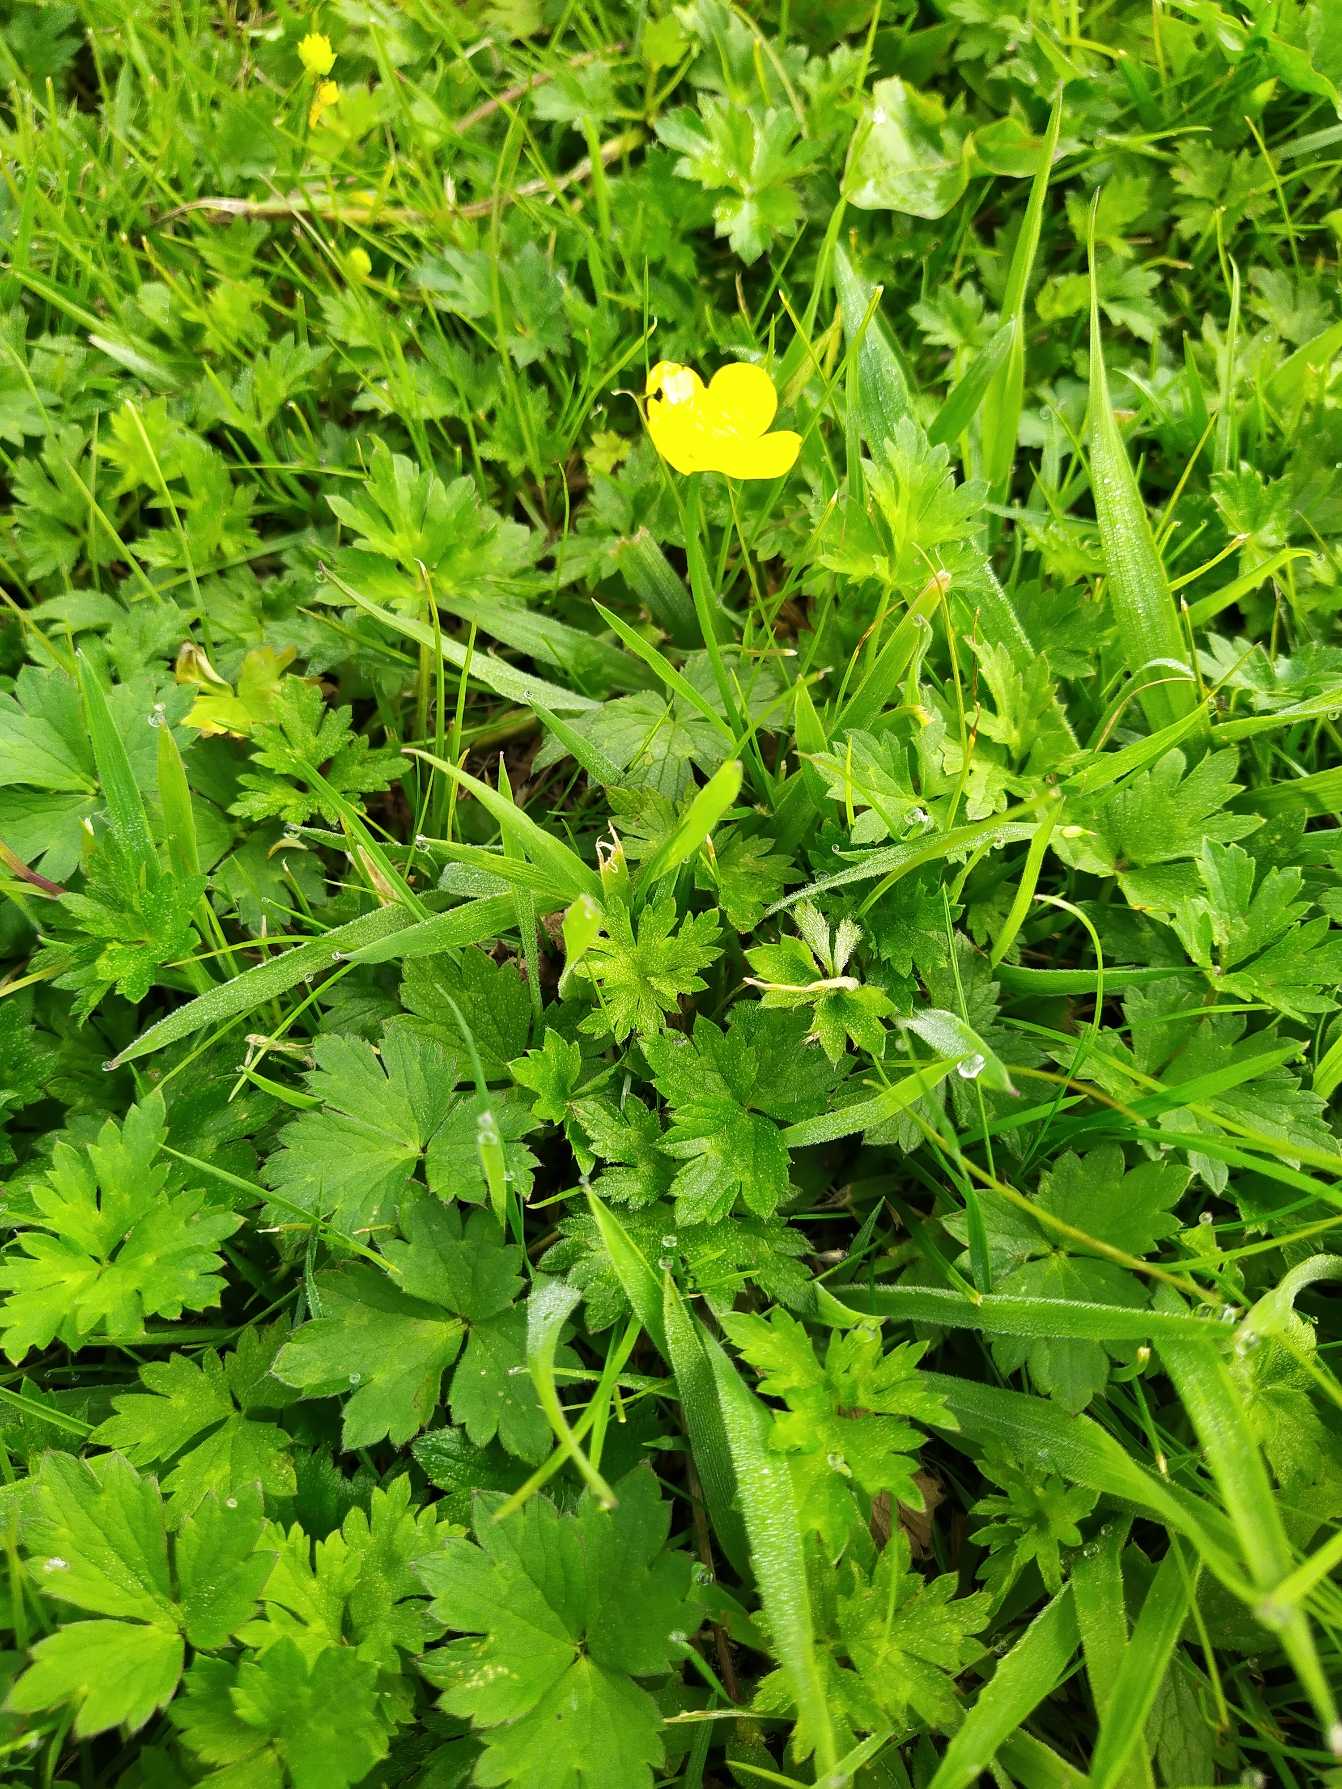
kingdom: Plantae
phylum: Tracheophyta
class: Magnoliopsida
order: Ranunculales
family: Ranunculaceae
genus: Ranunculus
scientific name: Ranunculus repens
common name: Lav ranunkel
